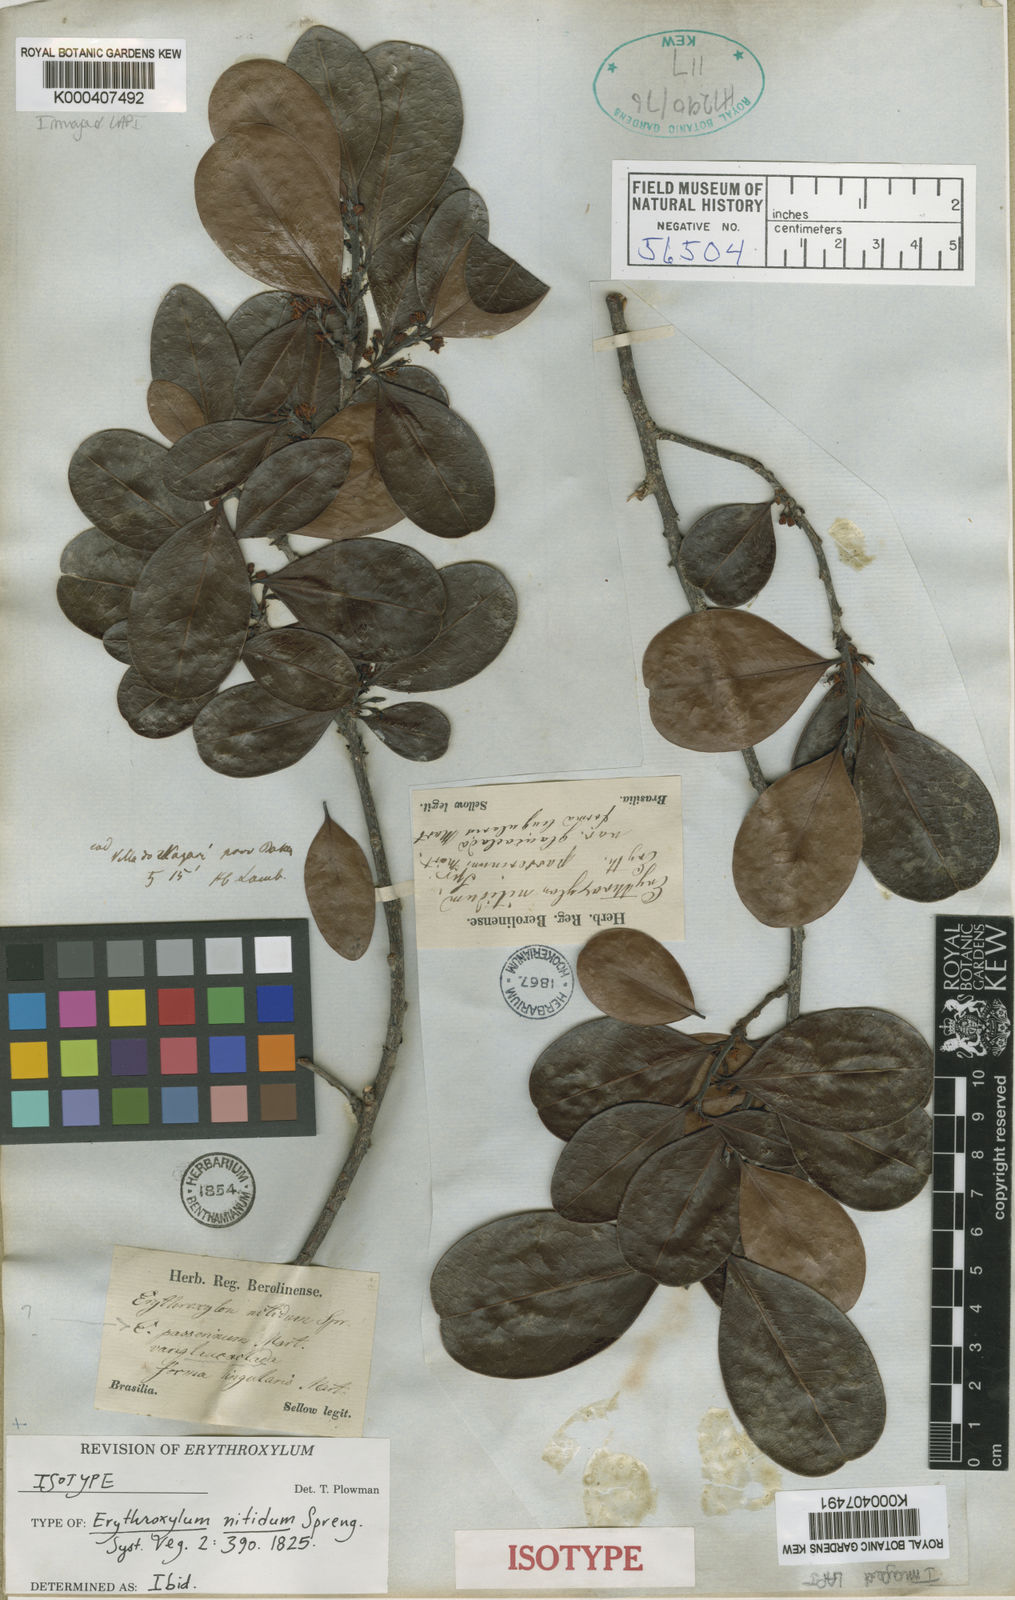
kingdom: Plantae
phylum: Tracheophyta
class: Magnoliopsida
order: Malpighiales
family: Erythroxylaceae
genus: Erythroxylum
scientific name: Erythroxylum deciduum
